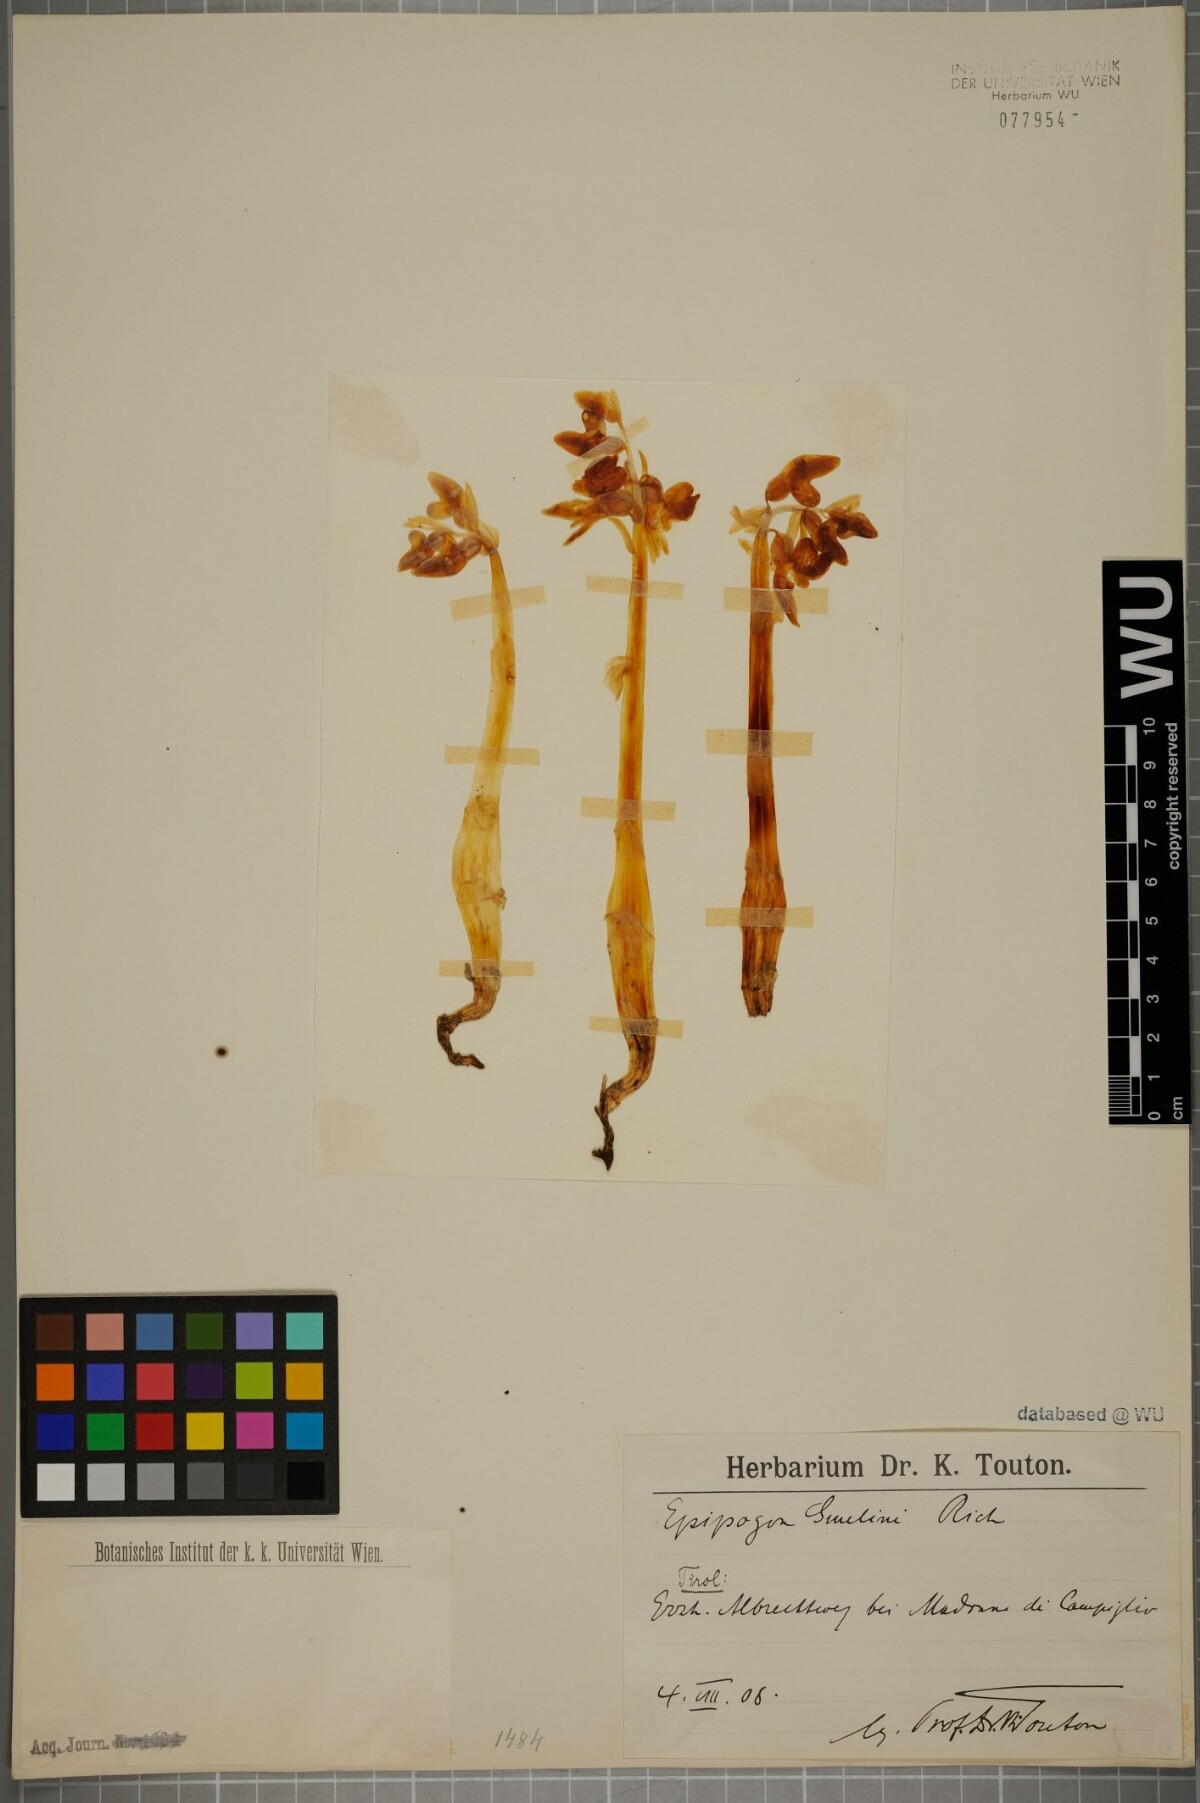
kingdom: Plantae
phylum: Tracheophyta
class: Liliopsida
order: Asparagales
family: Orchidaceae
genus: Epipogium
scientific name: Epipogium aphyllum
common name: Ghost orchid
